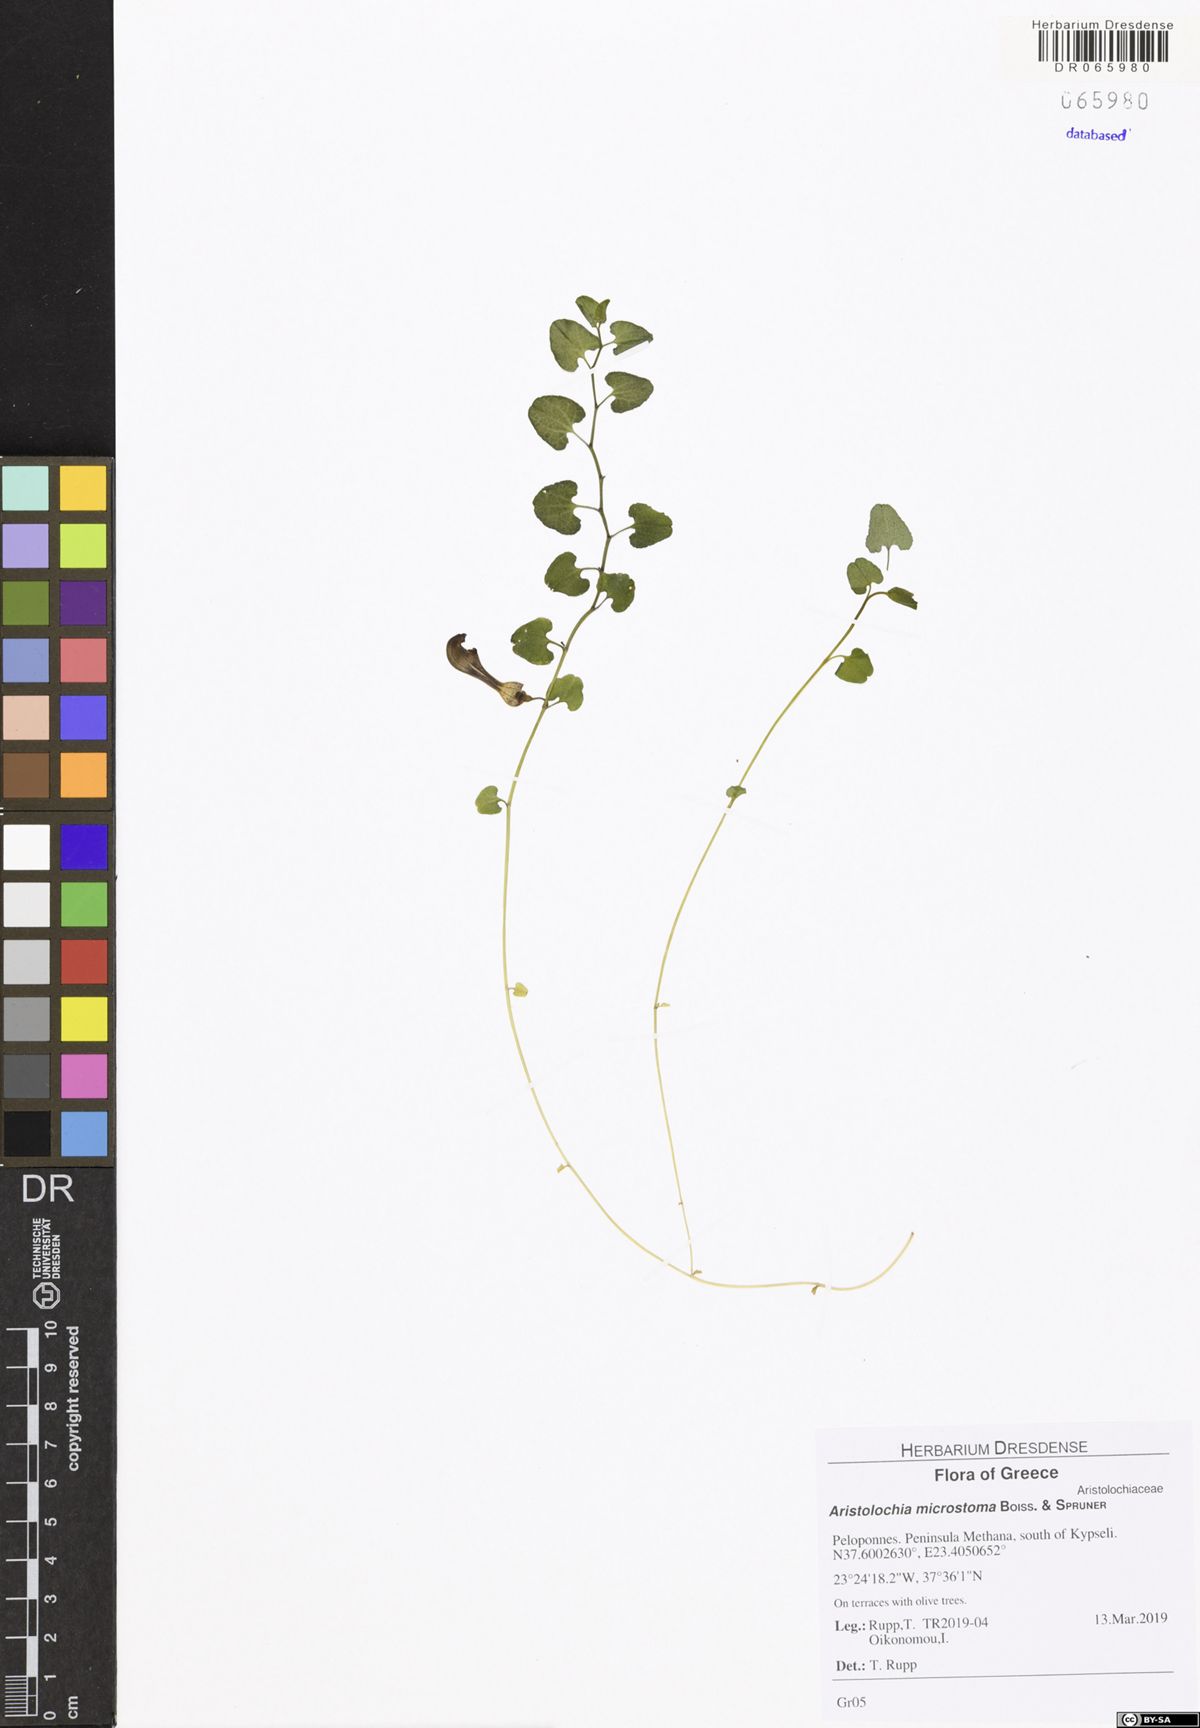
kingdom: Plantae
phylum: Tracheophyta
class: Magnoliopsida
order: Piperales
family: Aristolochiaceae
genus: Aristolochia
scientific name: Aristolochia microstoma
